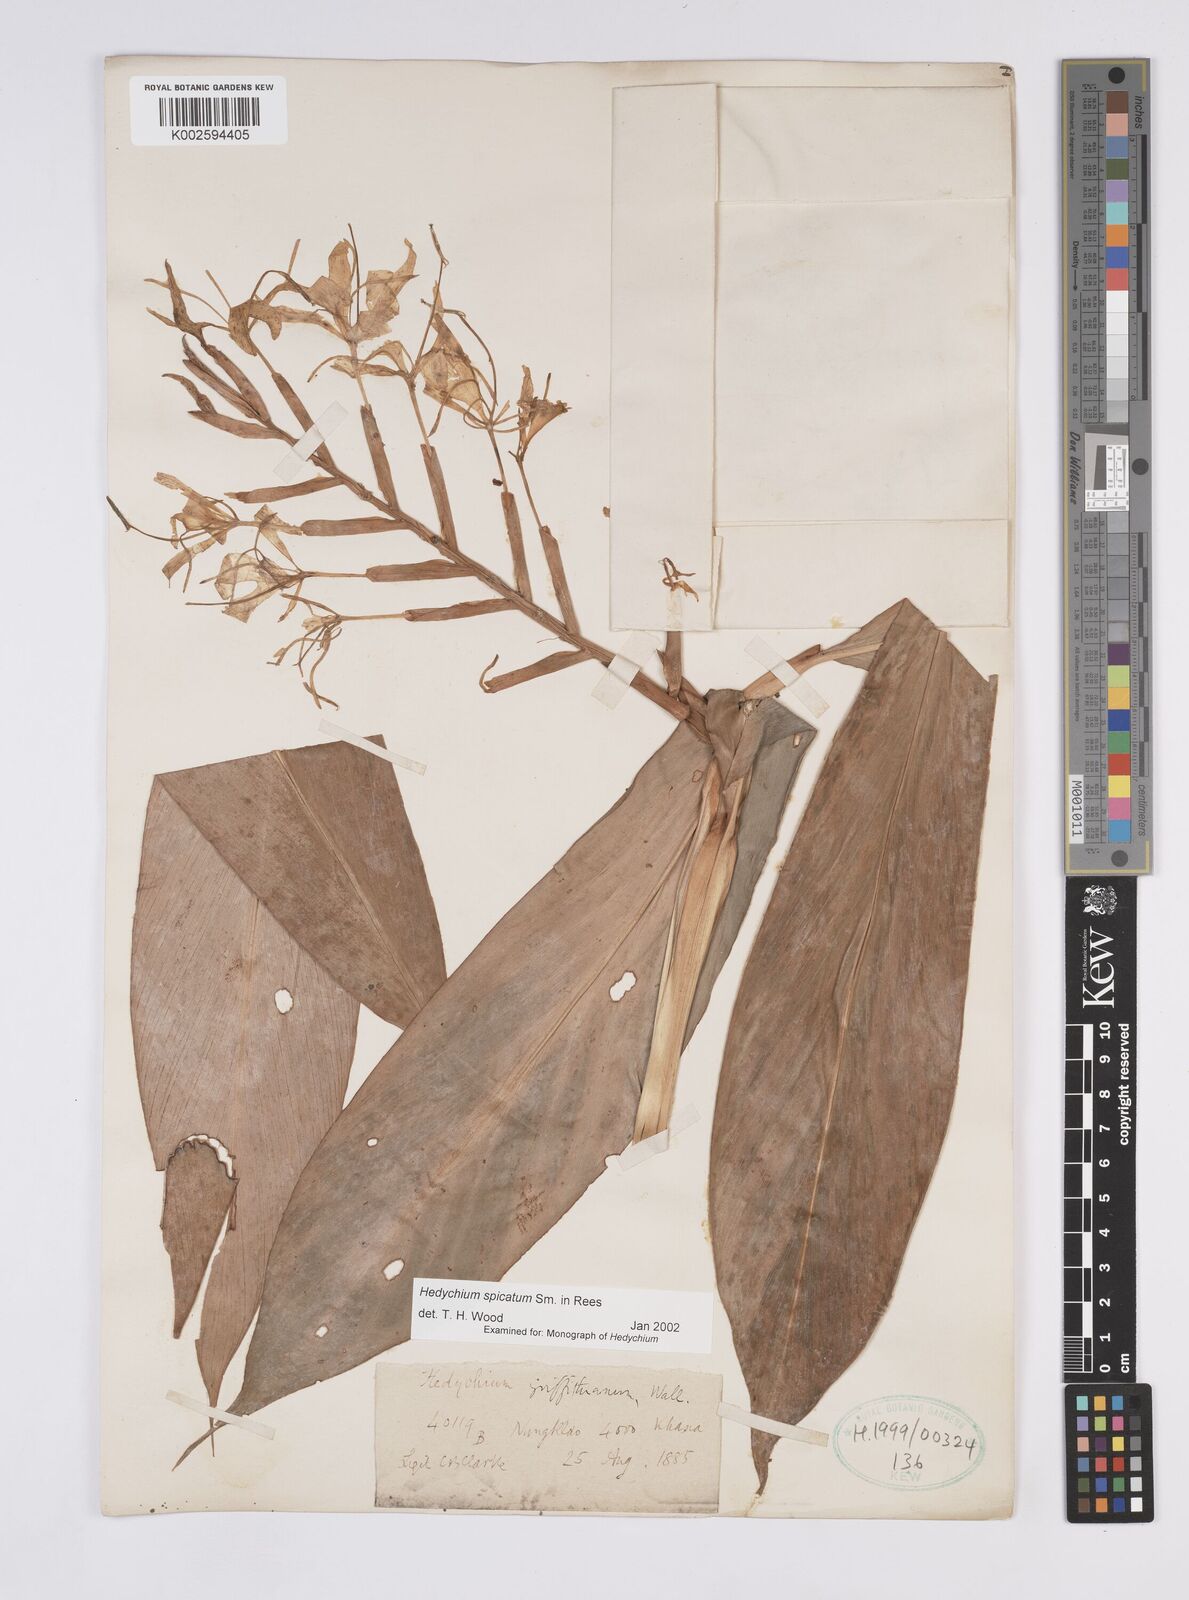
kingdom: Plantae
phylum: Tracheophyta
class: Liliopsida
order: Zingiberales
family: Zingiberaceae
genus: Hedychium
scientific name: Hedychium spicatum
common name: Spiked ginger-lily
